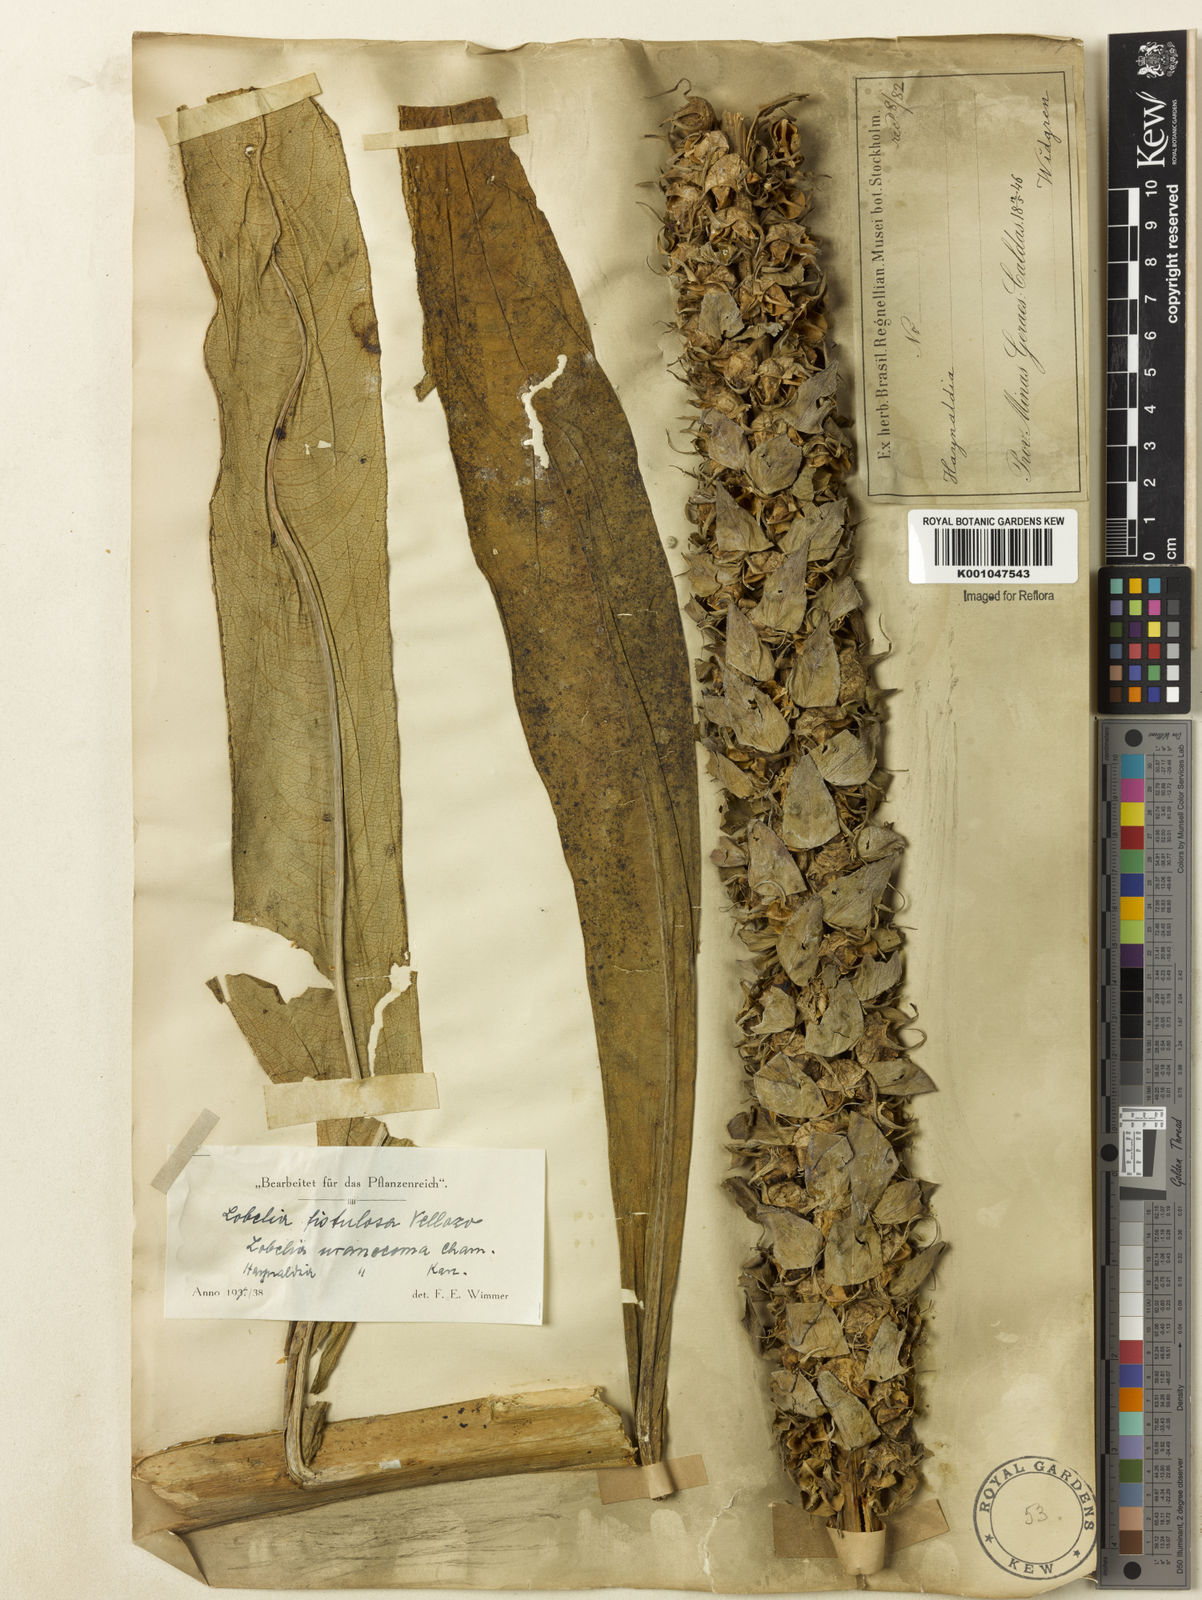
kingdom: Plantae
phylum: Tracheophyta
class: Magnoliopsida
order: Asterales
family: Campanulaceae
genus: Lobelia
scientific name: Lobelia fistulosa
